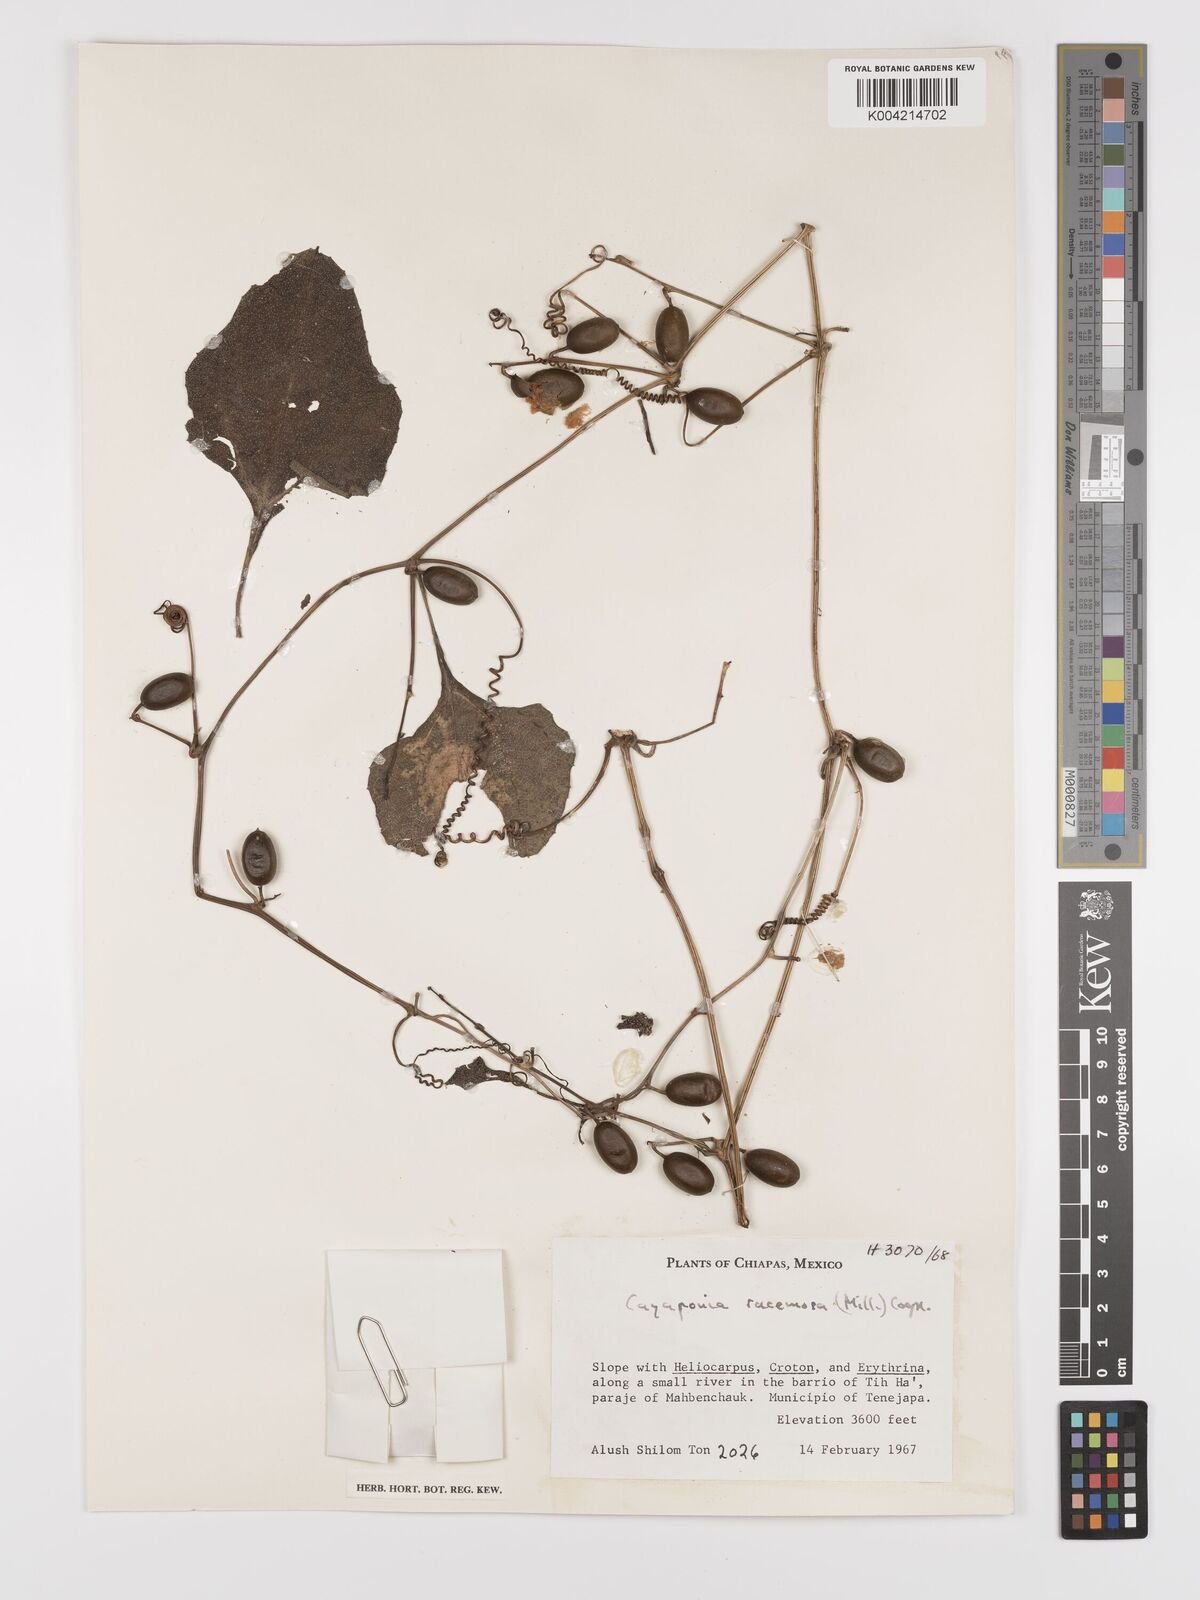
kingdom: Plantae
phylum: Tracheophyta
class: Magnoliopsida
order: Cucurbitales
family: Cucurbitaceae
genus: Cayaponia
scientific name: Cayaponia racemosa
